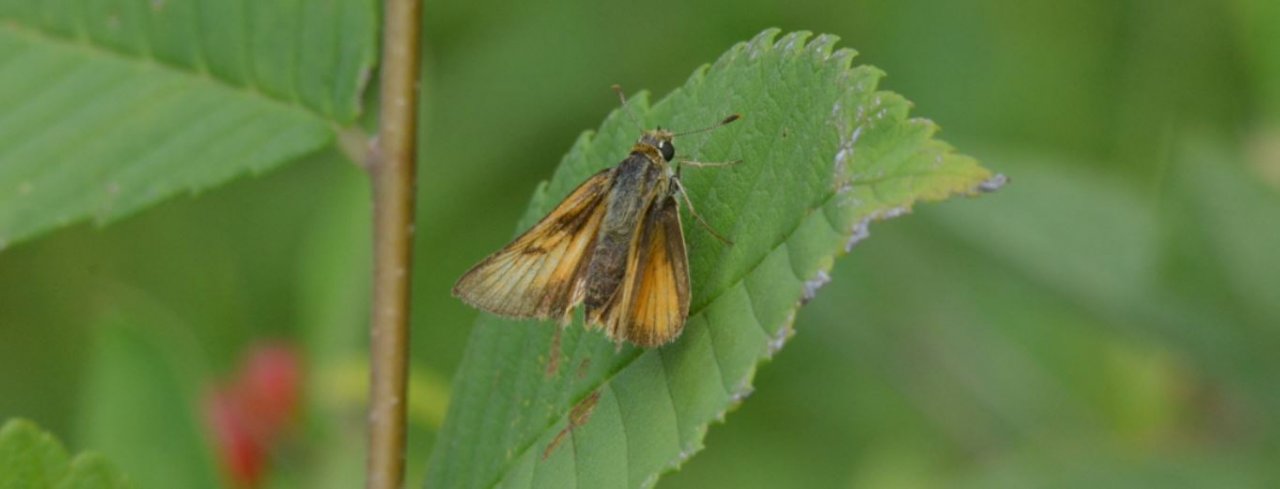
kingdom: Animalia
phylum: Arthropoda
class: Insecta
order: Lepidoptera
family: Hesperiidae
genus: Atrytone
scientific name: Atrytone delaware
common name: Delaware Skipper
